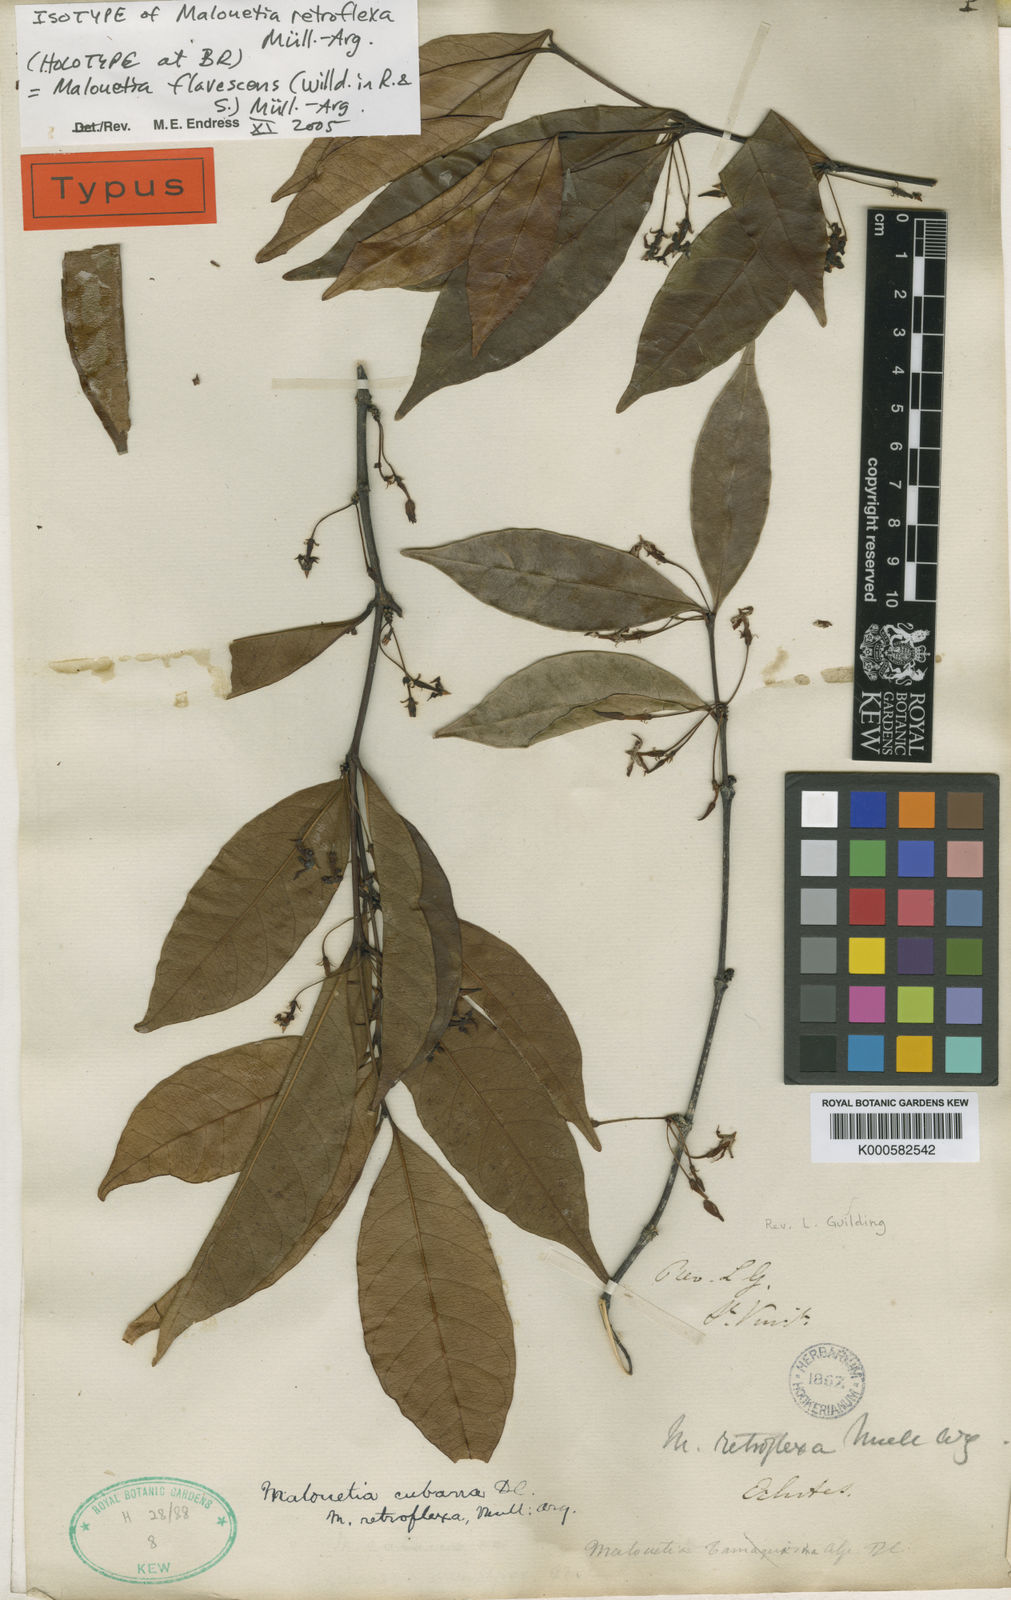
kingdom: Plantae
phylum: Tracheophyta
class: Magnoliopsida
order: Gentianales
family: Apocynaceae
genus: Malouetia
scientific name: Malouetia cubana
